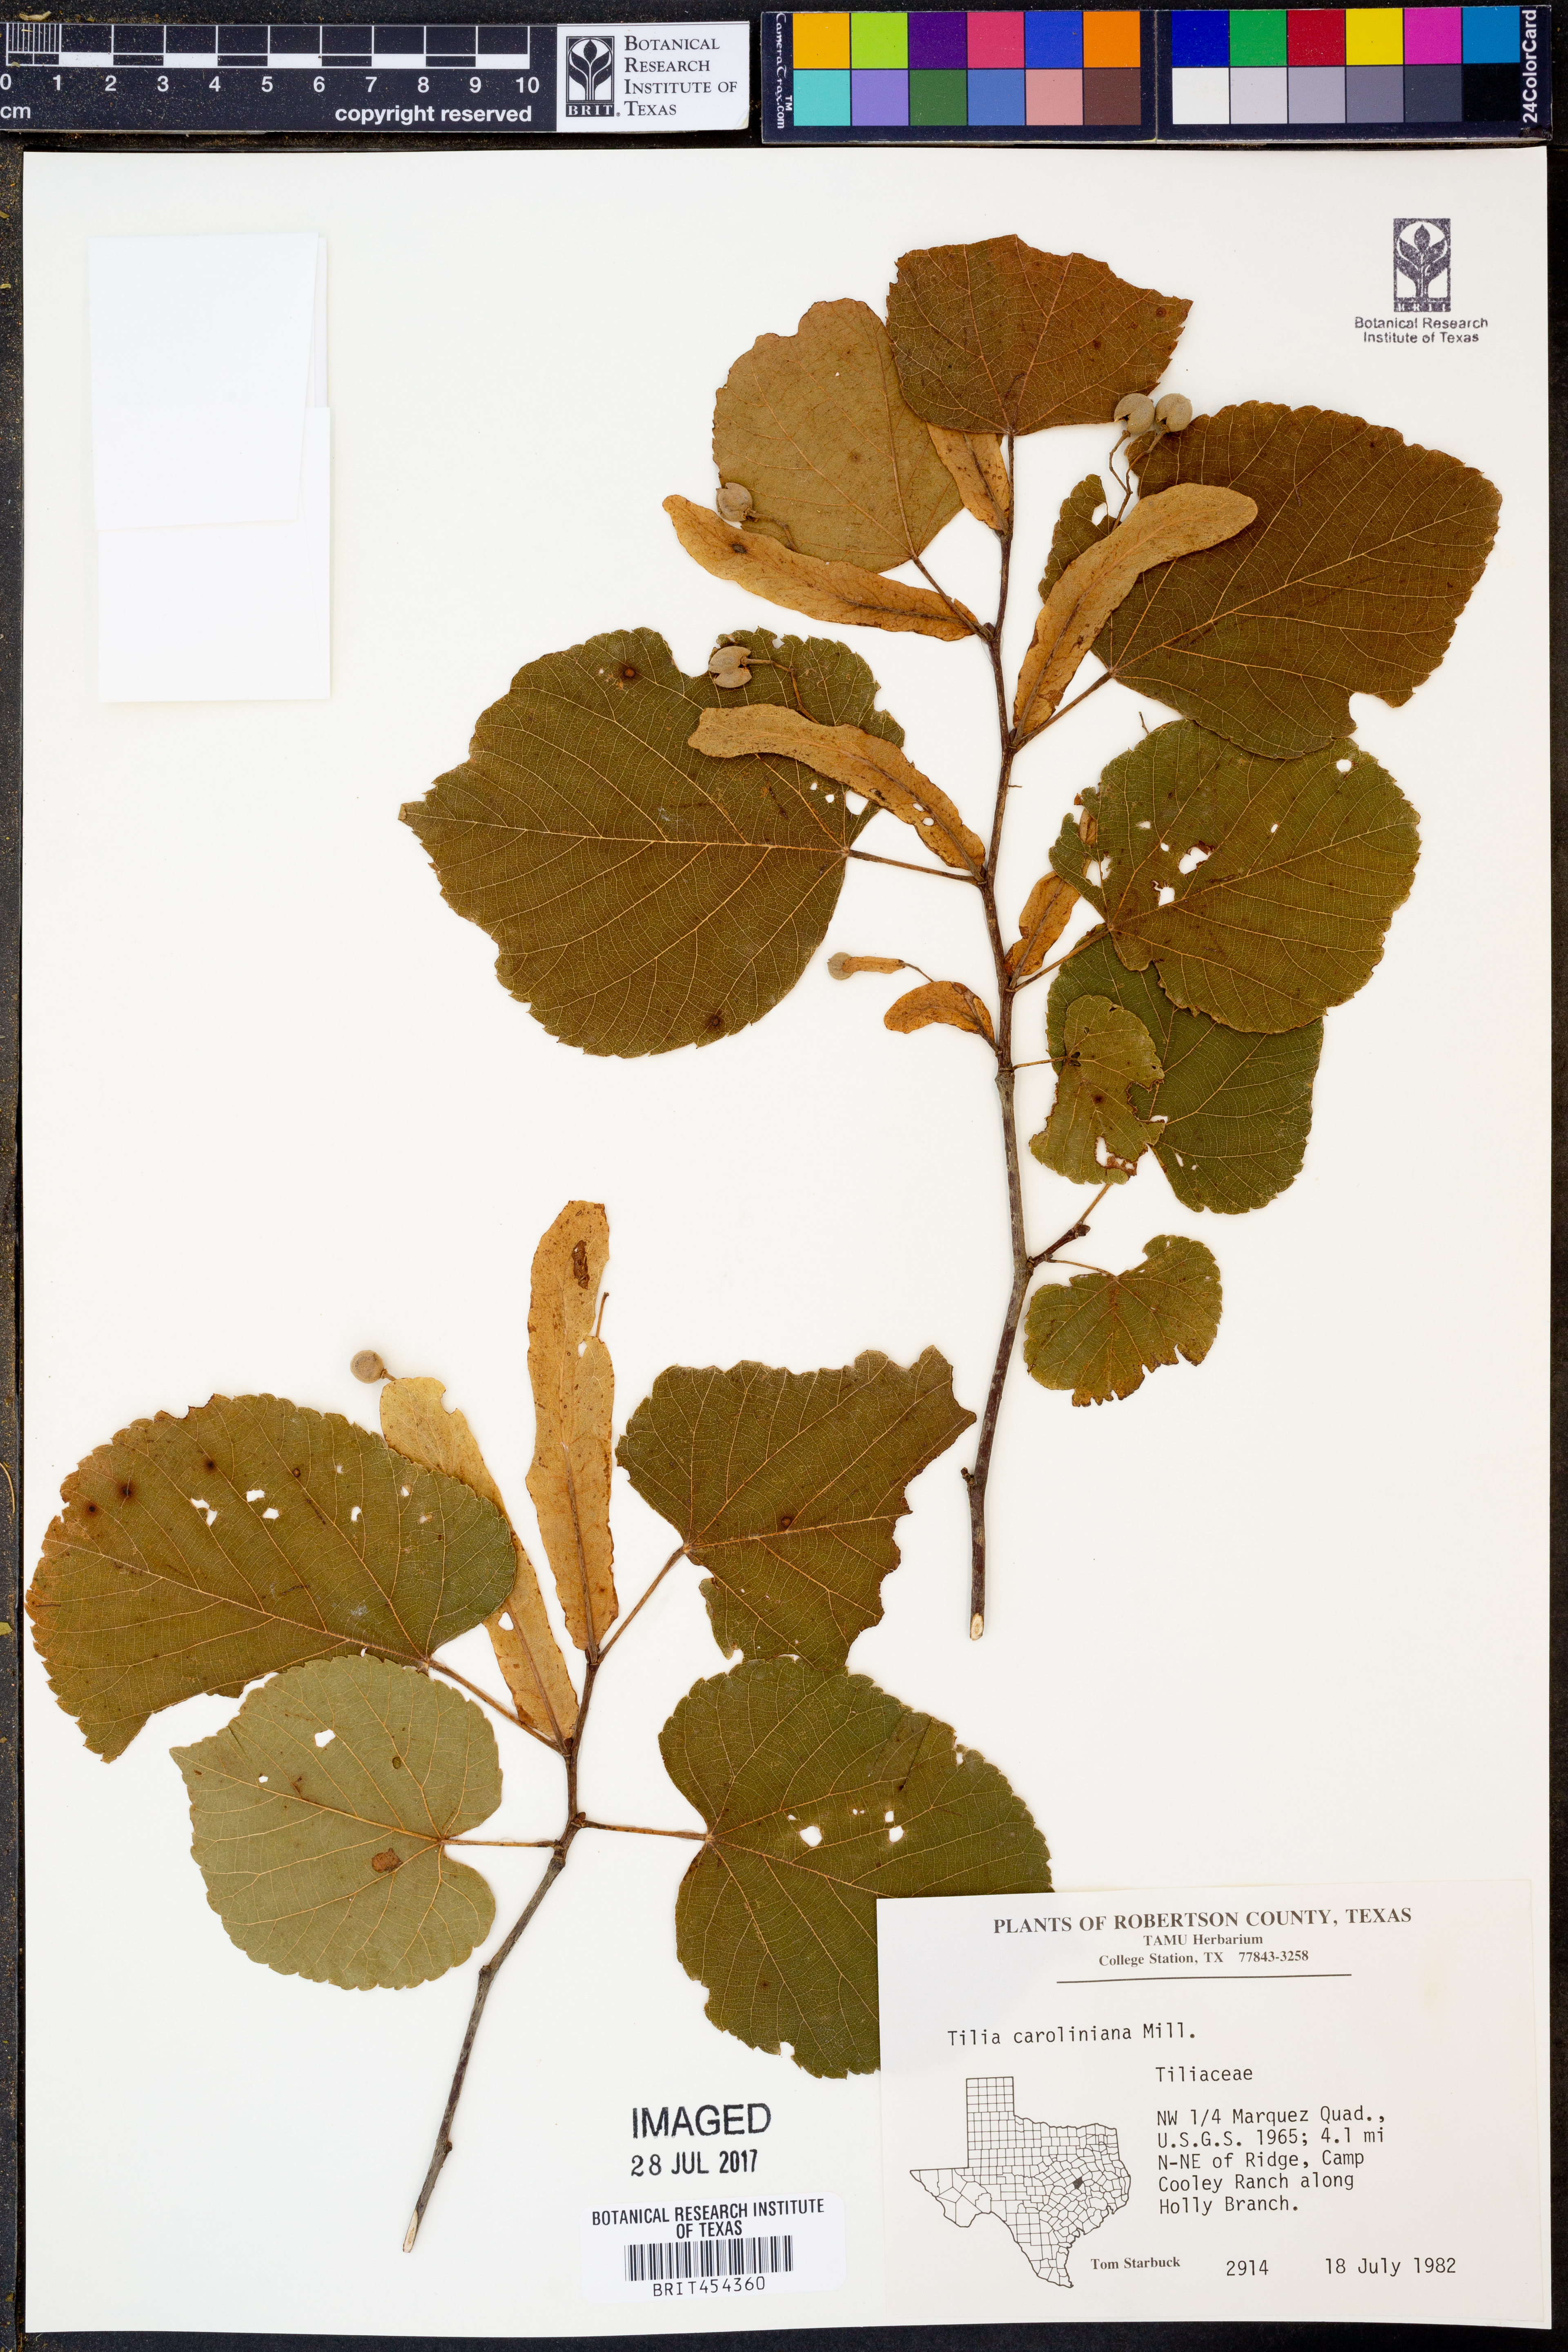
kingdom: Plantae
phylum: Tracheophyta
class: Magnoliopsida
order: Malvales
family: Malvaceae
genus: Tilia
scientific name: Tilia americana
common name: Basswood
